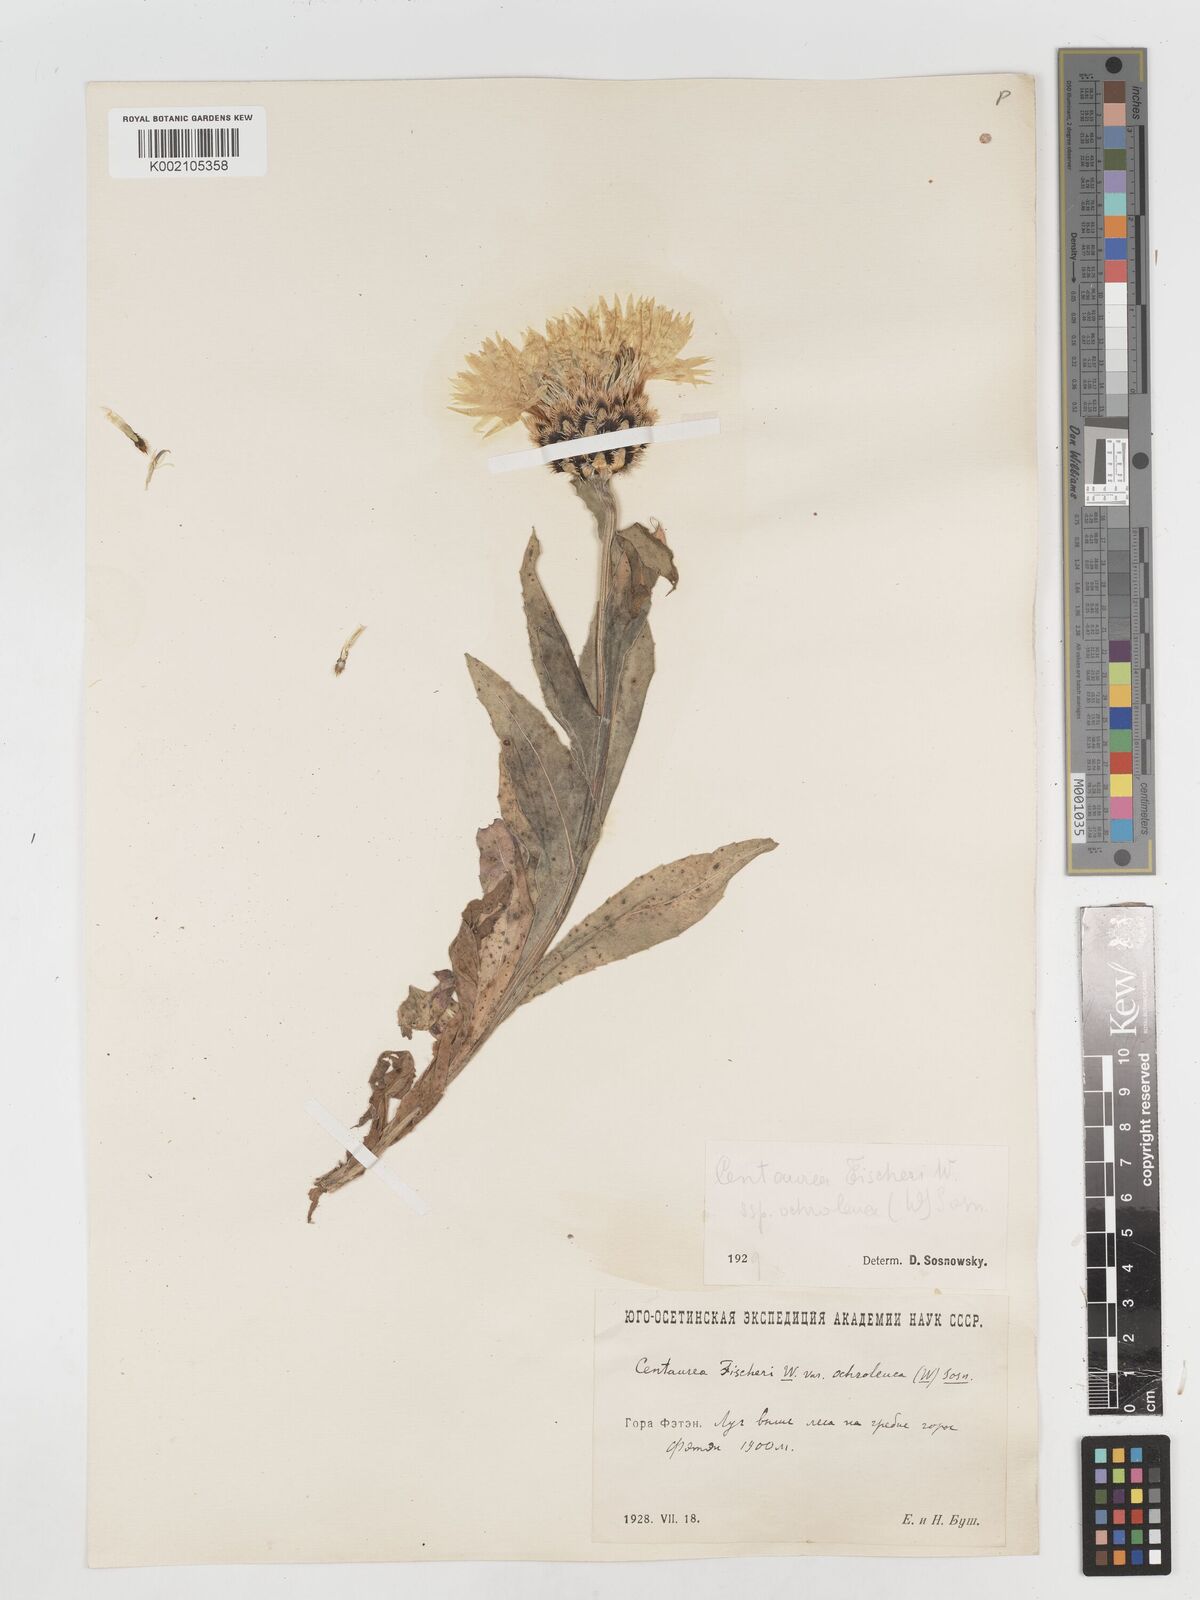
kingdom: Plantae
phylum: Tracheophyta
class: Magnoliopsida
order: Asterales
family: Asteraceae
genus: Centaurea
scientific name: Centaurea cheiranthifolia
